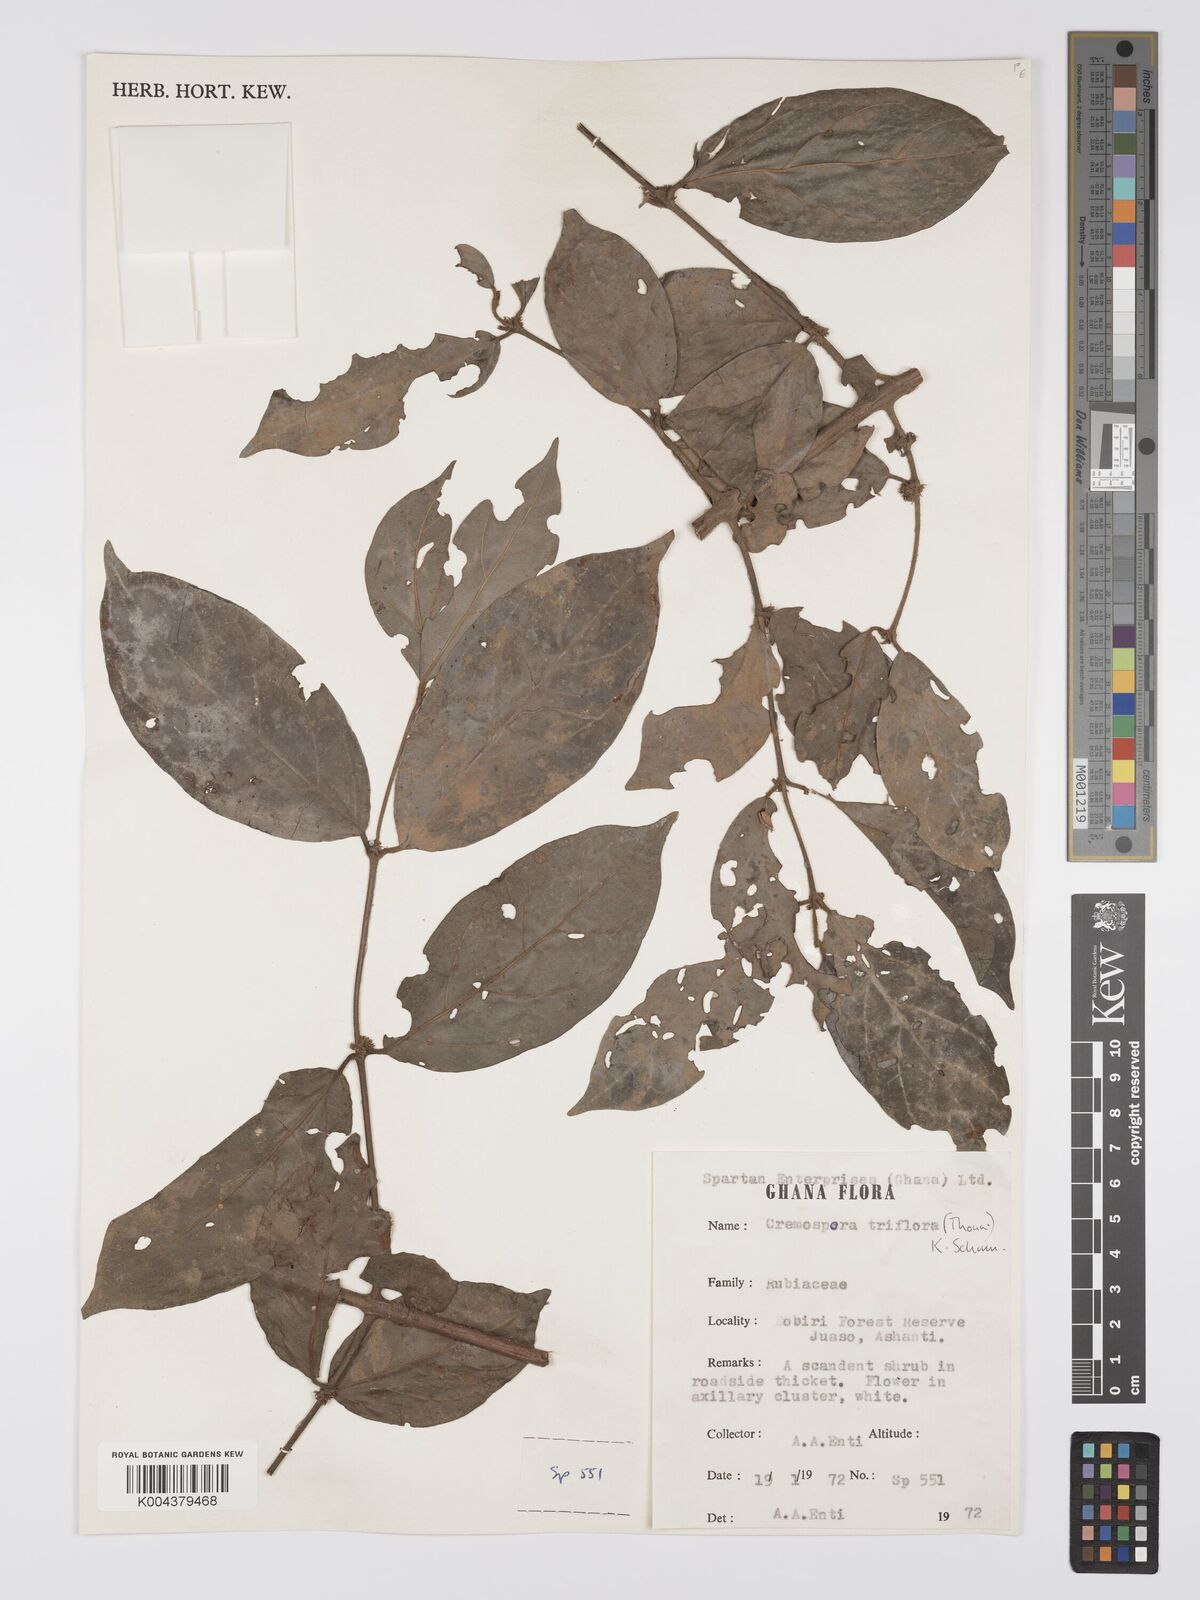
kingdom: Plantae
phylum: Tracheophyta
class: Magnoliopsida
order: Gentianales
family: Rubiaceae
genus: Cremaspora
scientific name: Cremaspora triflora
